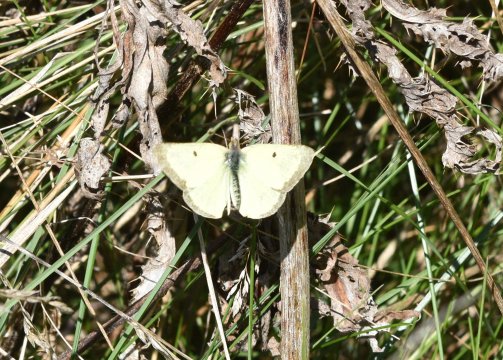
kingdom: Animalia
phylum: Arthropoda
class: Insecta
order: Lepidoptera
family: Pieridae
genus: Colias
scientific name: Colias philodice
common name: Clouded Sulphur
